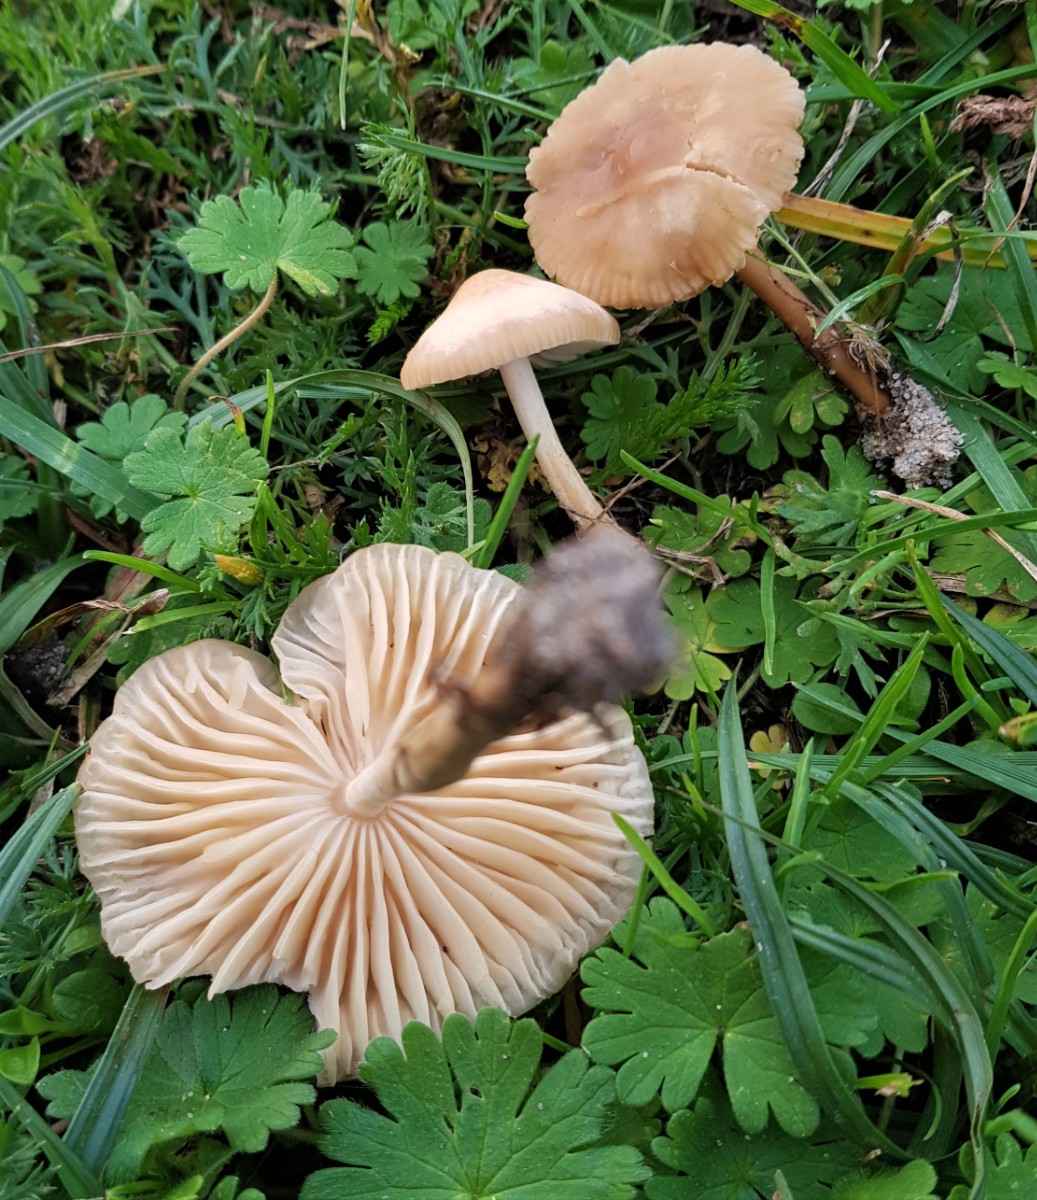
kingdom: Fungi
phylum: Basidiomycota
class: Agaricomycetes
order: Agaricales
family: Marasmiaceae
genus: Marasmius
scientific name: Marasmius oreades
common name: elledans-bruskhat
